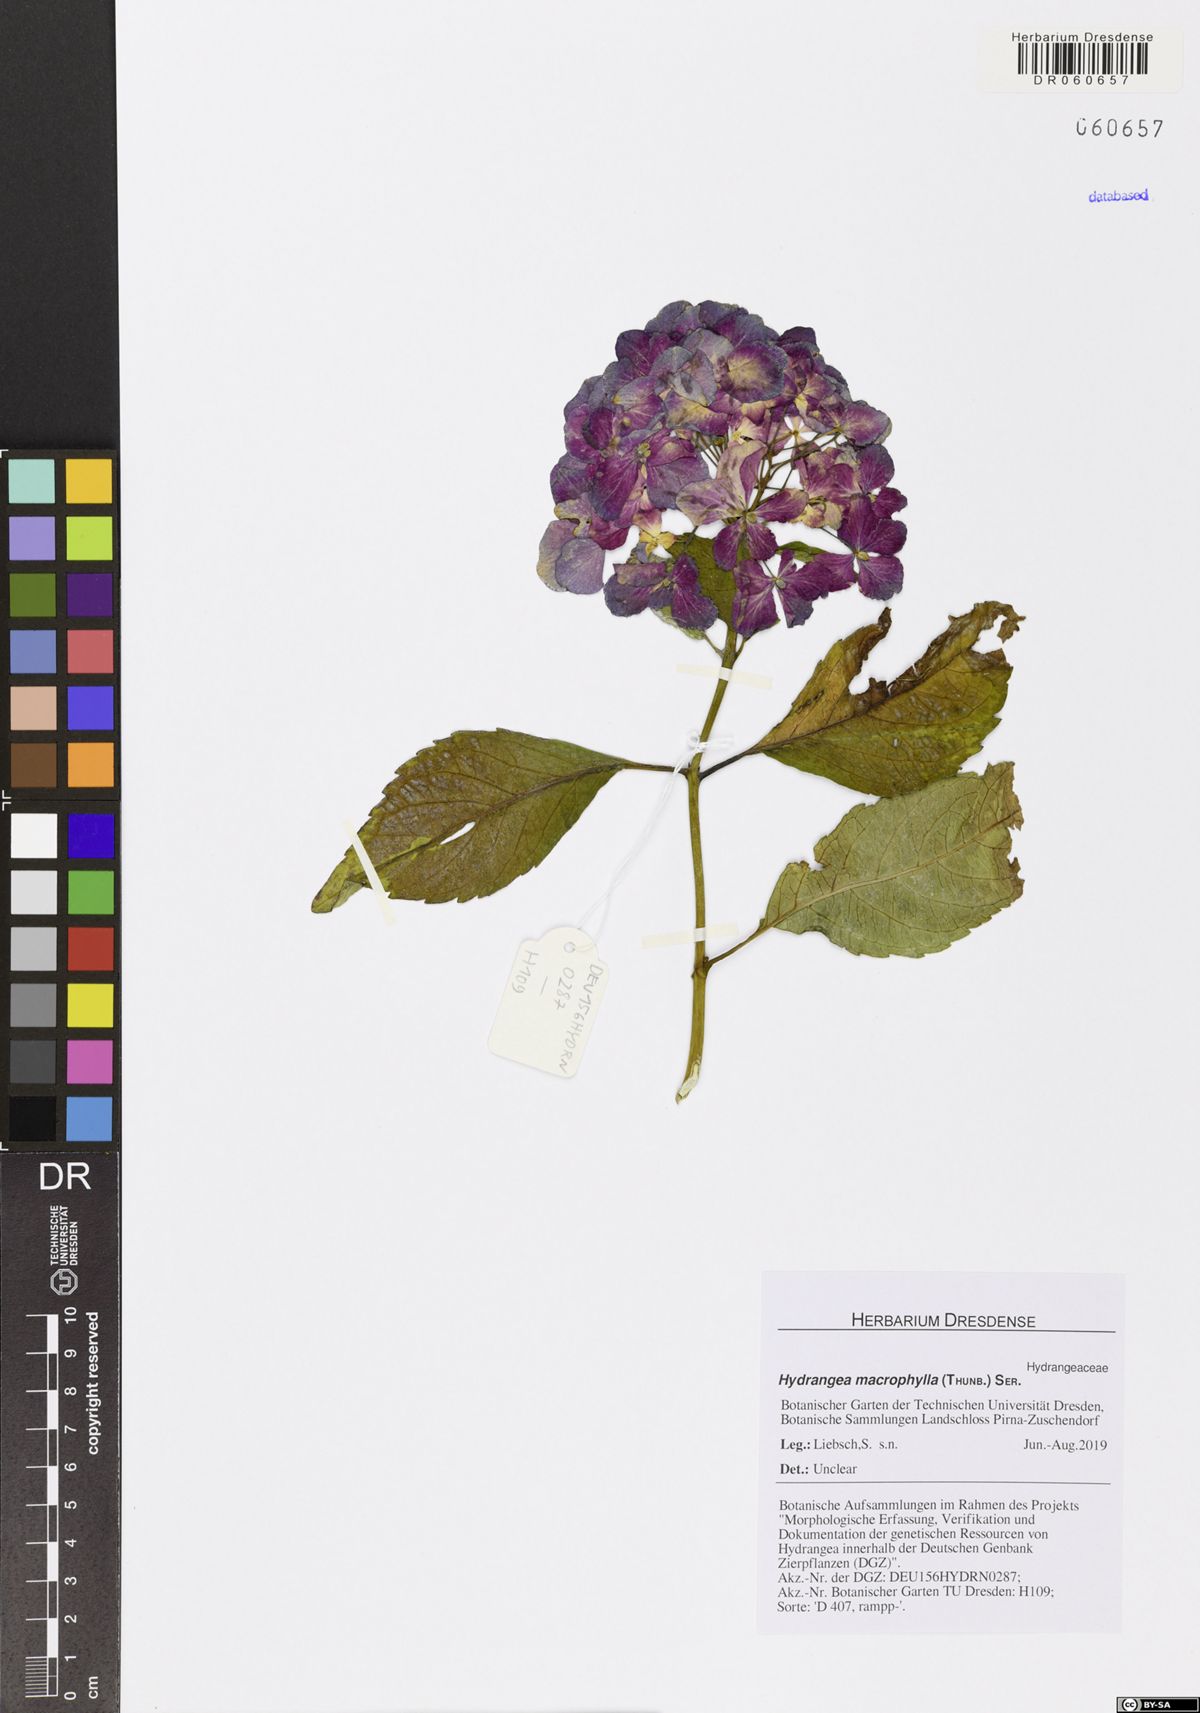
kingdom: Plantae
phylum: Tracheophyta
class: Magnoliopsida
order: Cornales
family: Hydrangeaceae
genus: Hydrangea
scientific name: Hydrangea macrophylla
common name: Hydrangea
